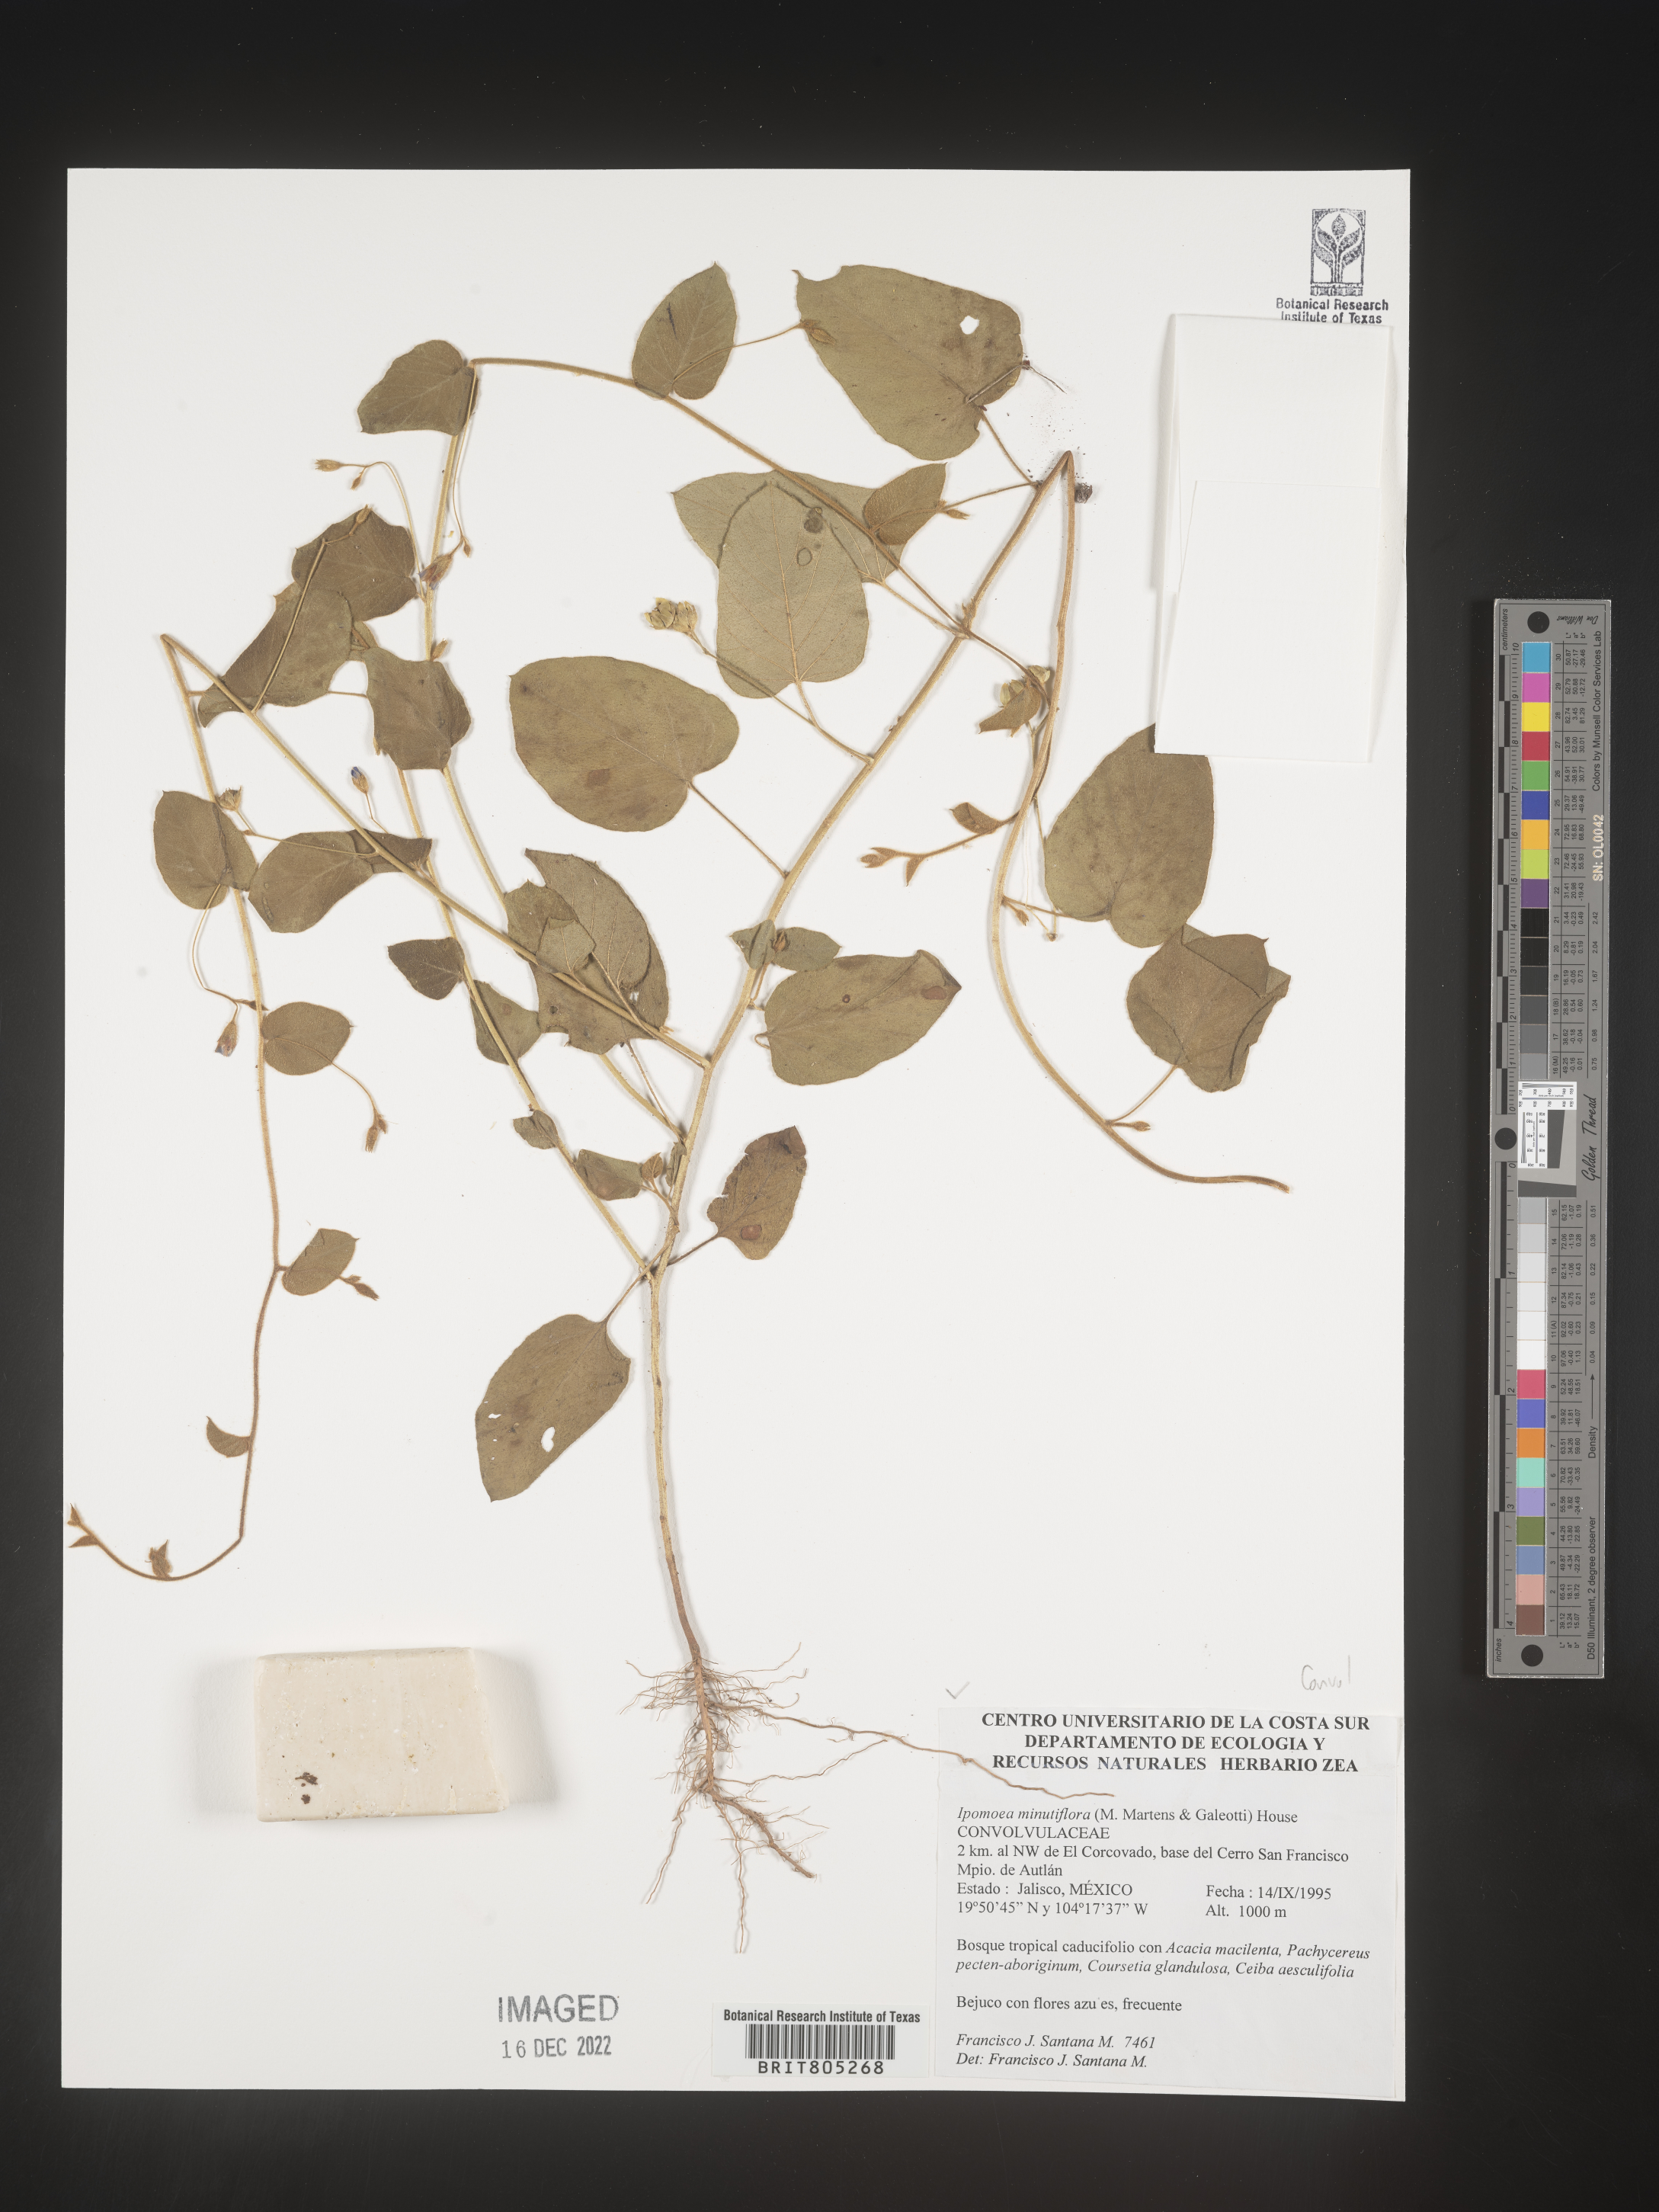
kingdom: Plantae
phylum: Tracheophyta
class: Magnoliopsida
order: Solanales
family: Convolvulaceae
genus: Ipomoea
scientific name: Ipomoea
